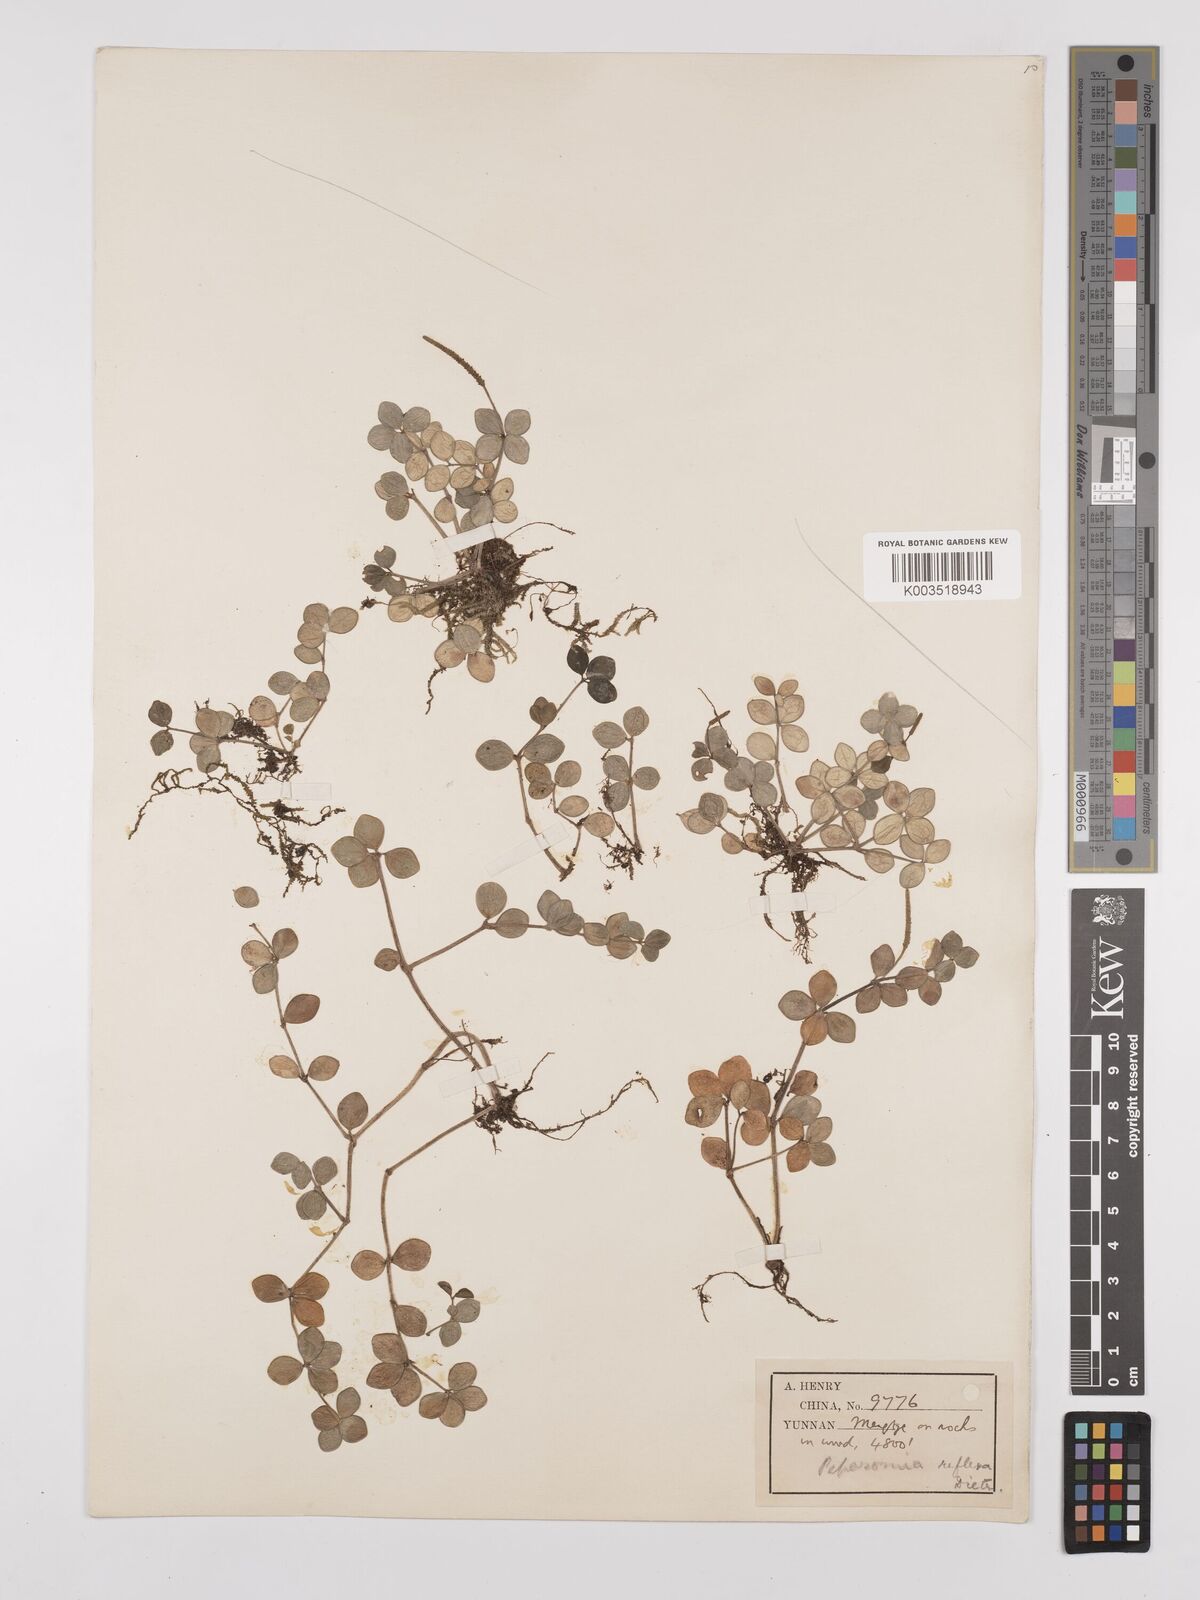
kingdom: Plantae
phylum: Tracheophyta
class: Magnoliopsida
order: Piperales
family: Piperaceae
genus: Peperomia
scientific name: Peperomia tetraphylla
